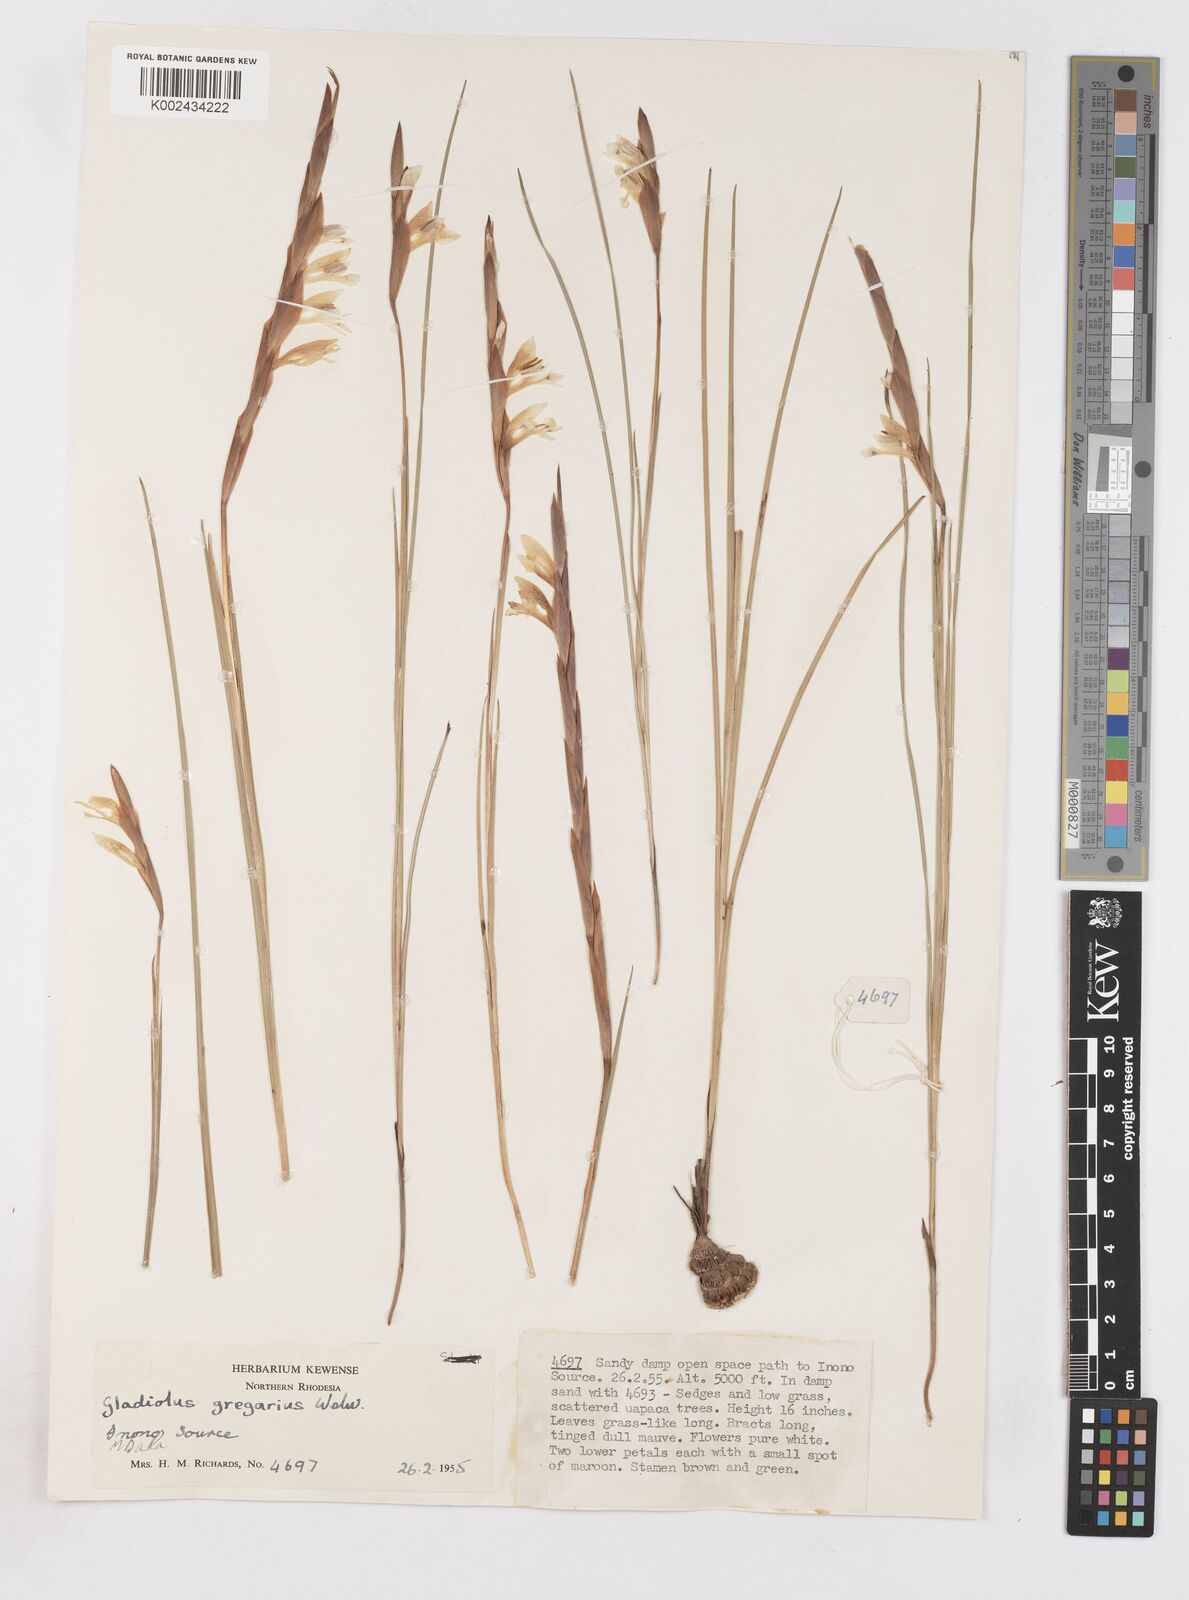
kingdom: Plantae
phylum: Tracheophyta
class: Liliopsida
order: Asparagales
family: Iridaceae
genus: Gladiolus
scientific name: Gladiolus gregarius
